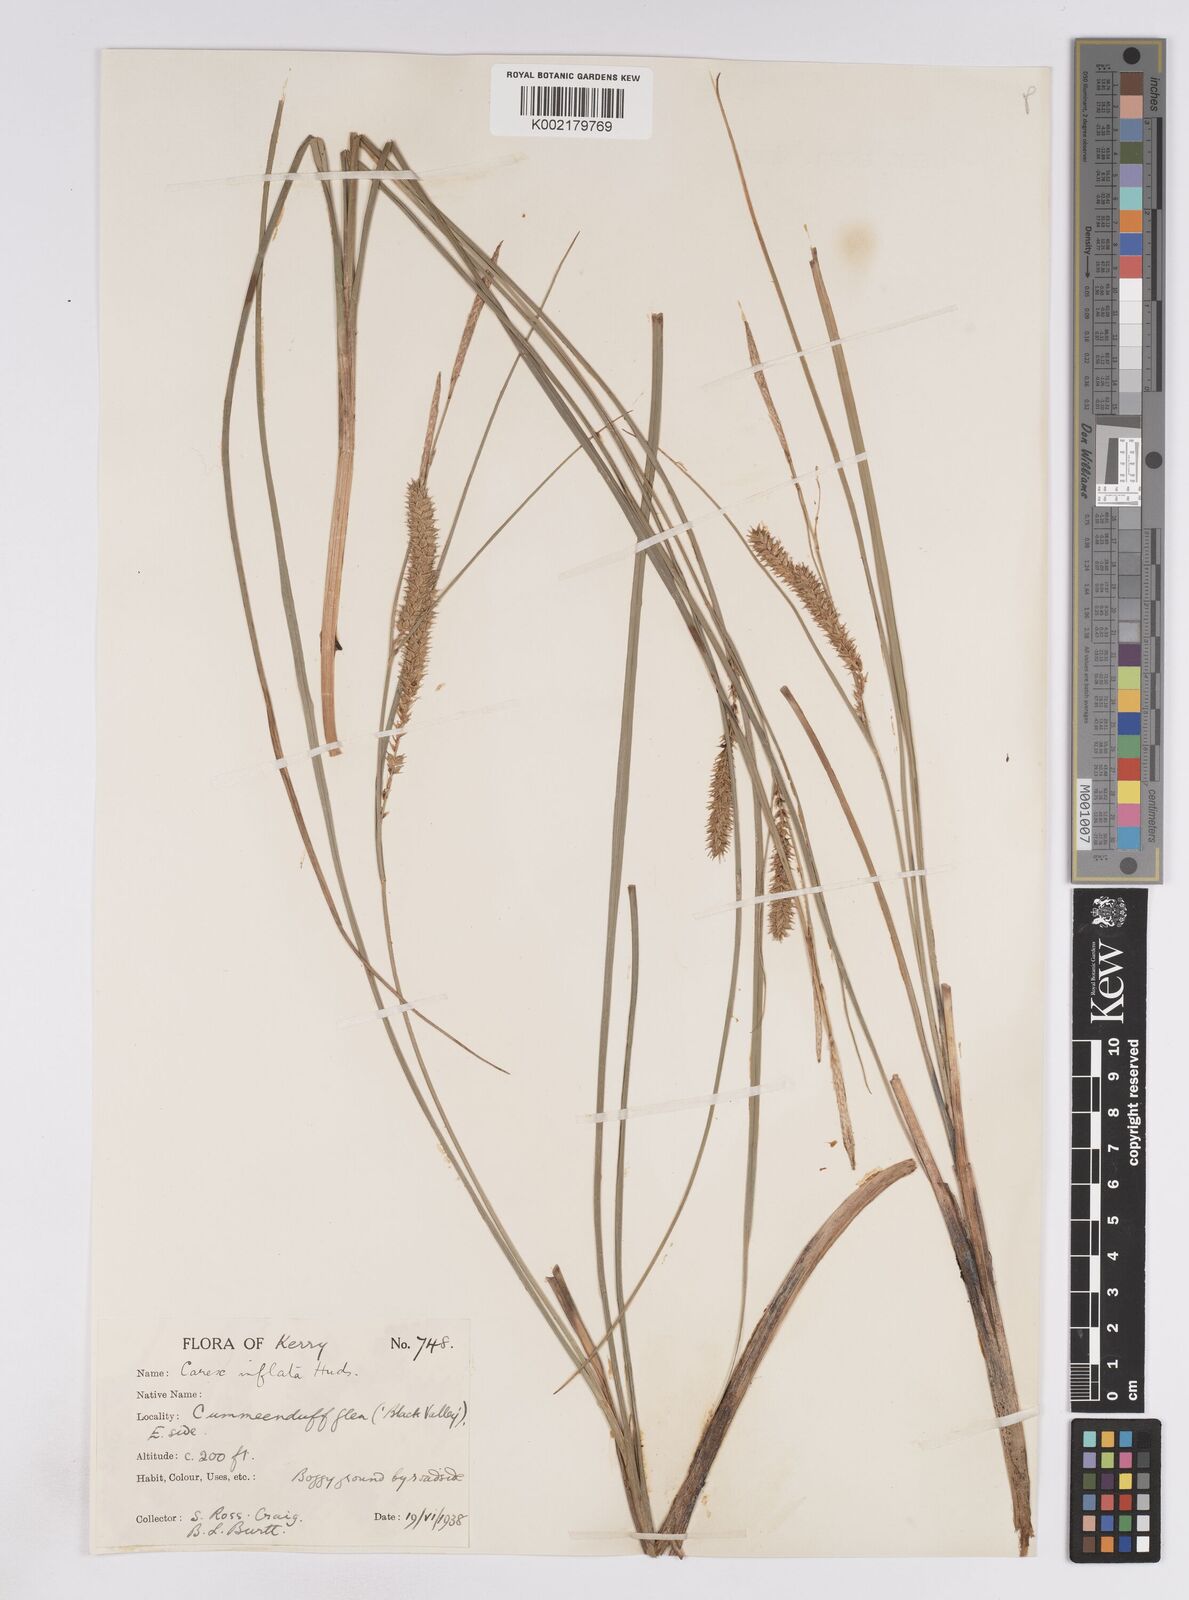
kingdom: Plantae
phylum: Tracheophyta
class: Liliopsida
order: Poales
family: Cyperaceae
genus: Carex
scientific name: Carex rostrata
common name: Bottle sedge
